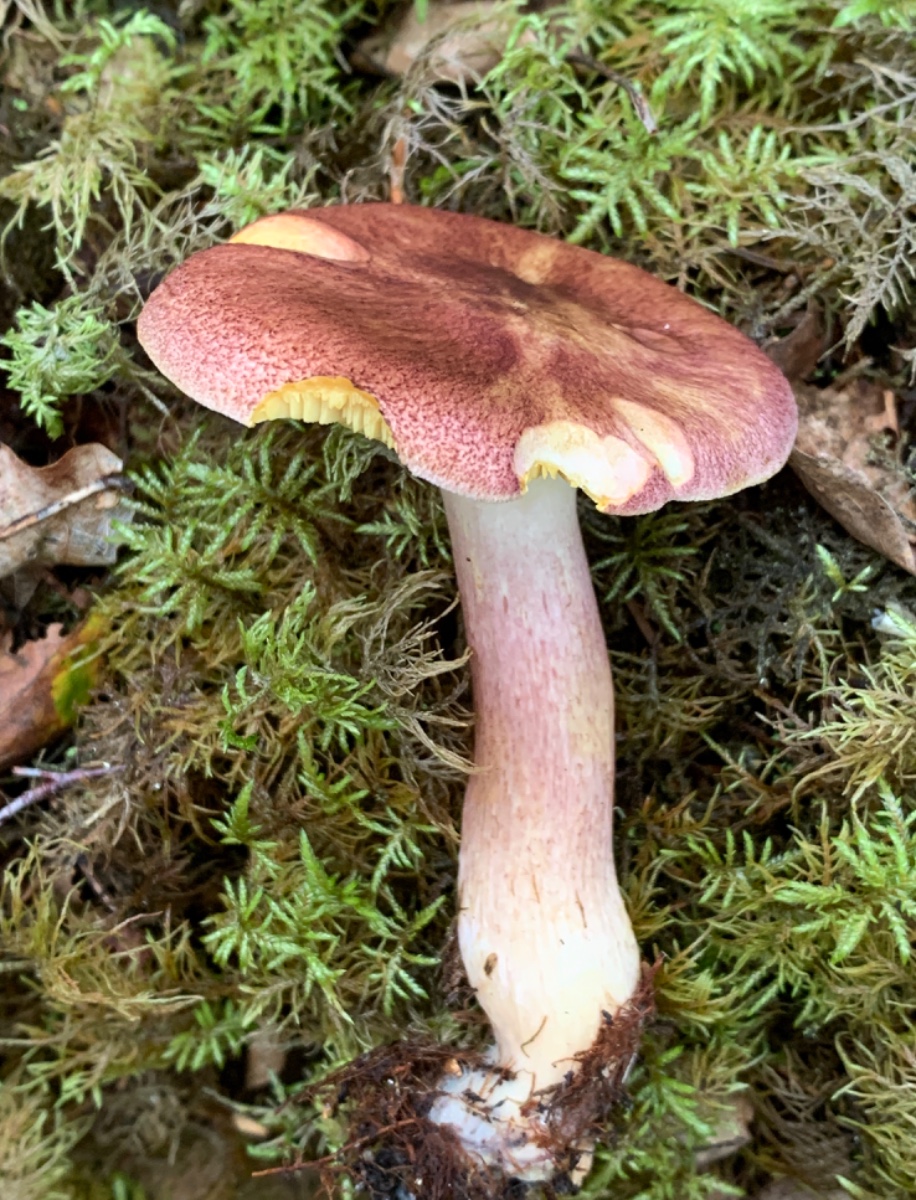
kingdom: Fungi
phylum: Basidiomycota
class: Agaricomycetes
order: Agaricales
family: Tricholomataceae
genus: Tricholomopsis
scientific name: Tricholomopsis rutilans
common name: purpur-væbnerhat
